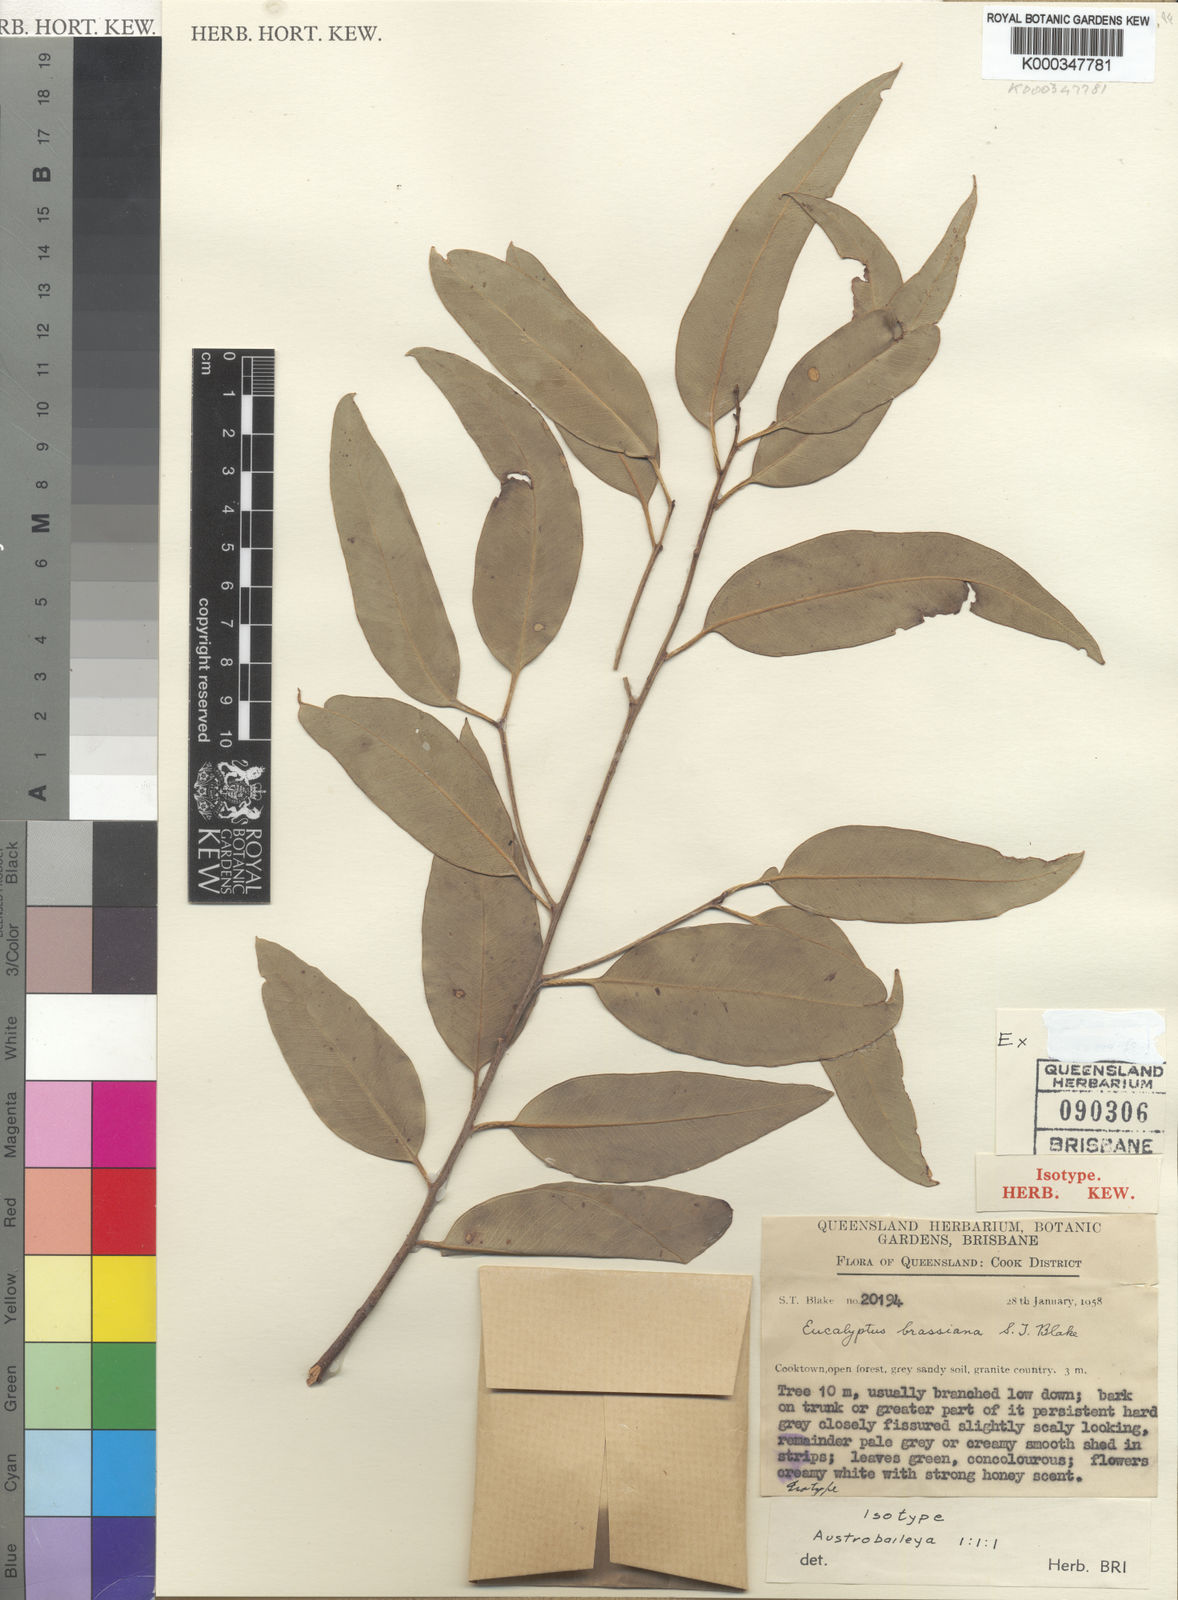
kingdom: Plantae
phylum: Tracheophyta
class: Magnoliopsida
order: Myrtales
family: Myrtaceae
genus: Eucalyptus
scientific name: Eucalyptus brassiana
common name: Cape-york-gum
